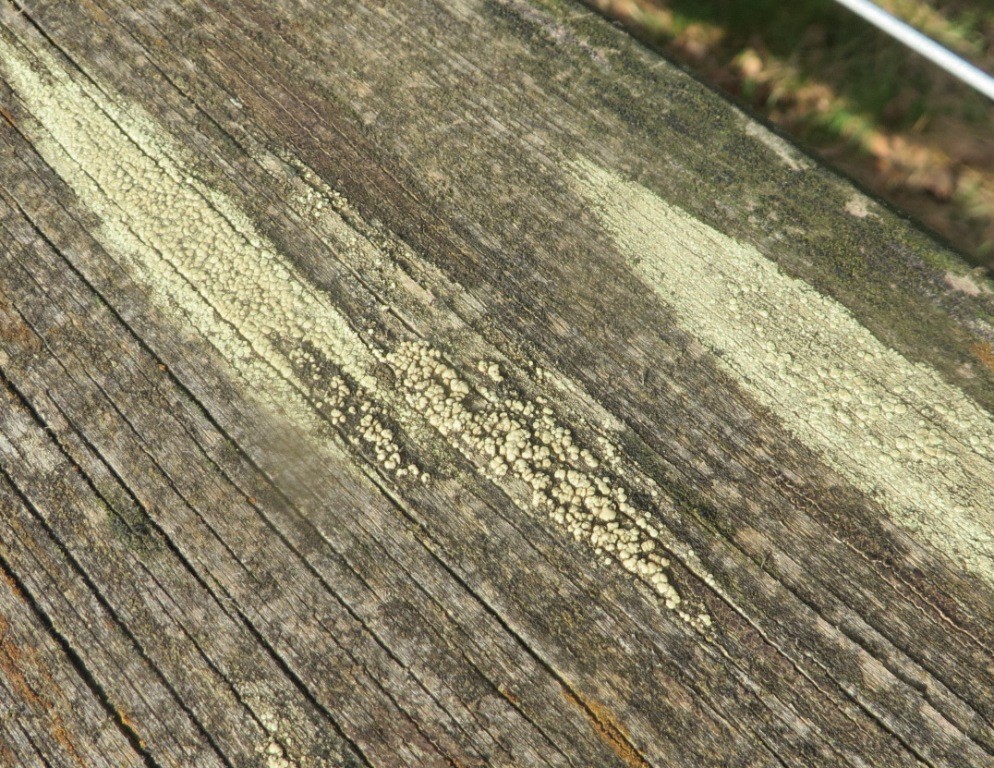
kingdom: Fungi
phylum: Ascomycota
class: Lecanoromycetes
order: Lecanorales
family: Lecanoraceae
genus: Lecanora
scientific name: Lecanora polytropa
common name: bleggrøn kantskivelav
